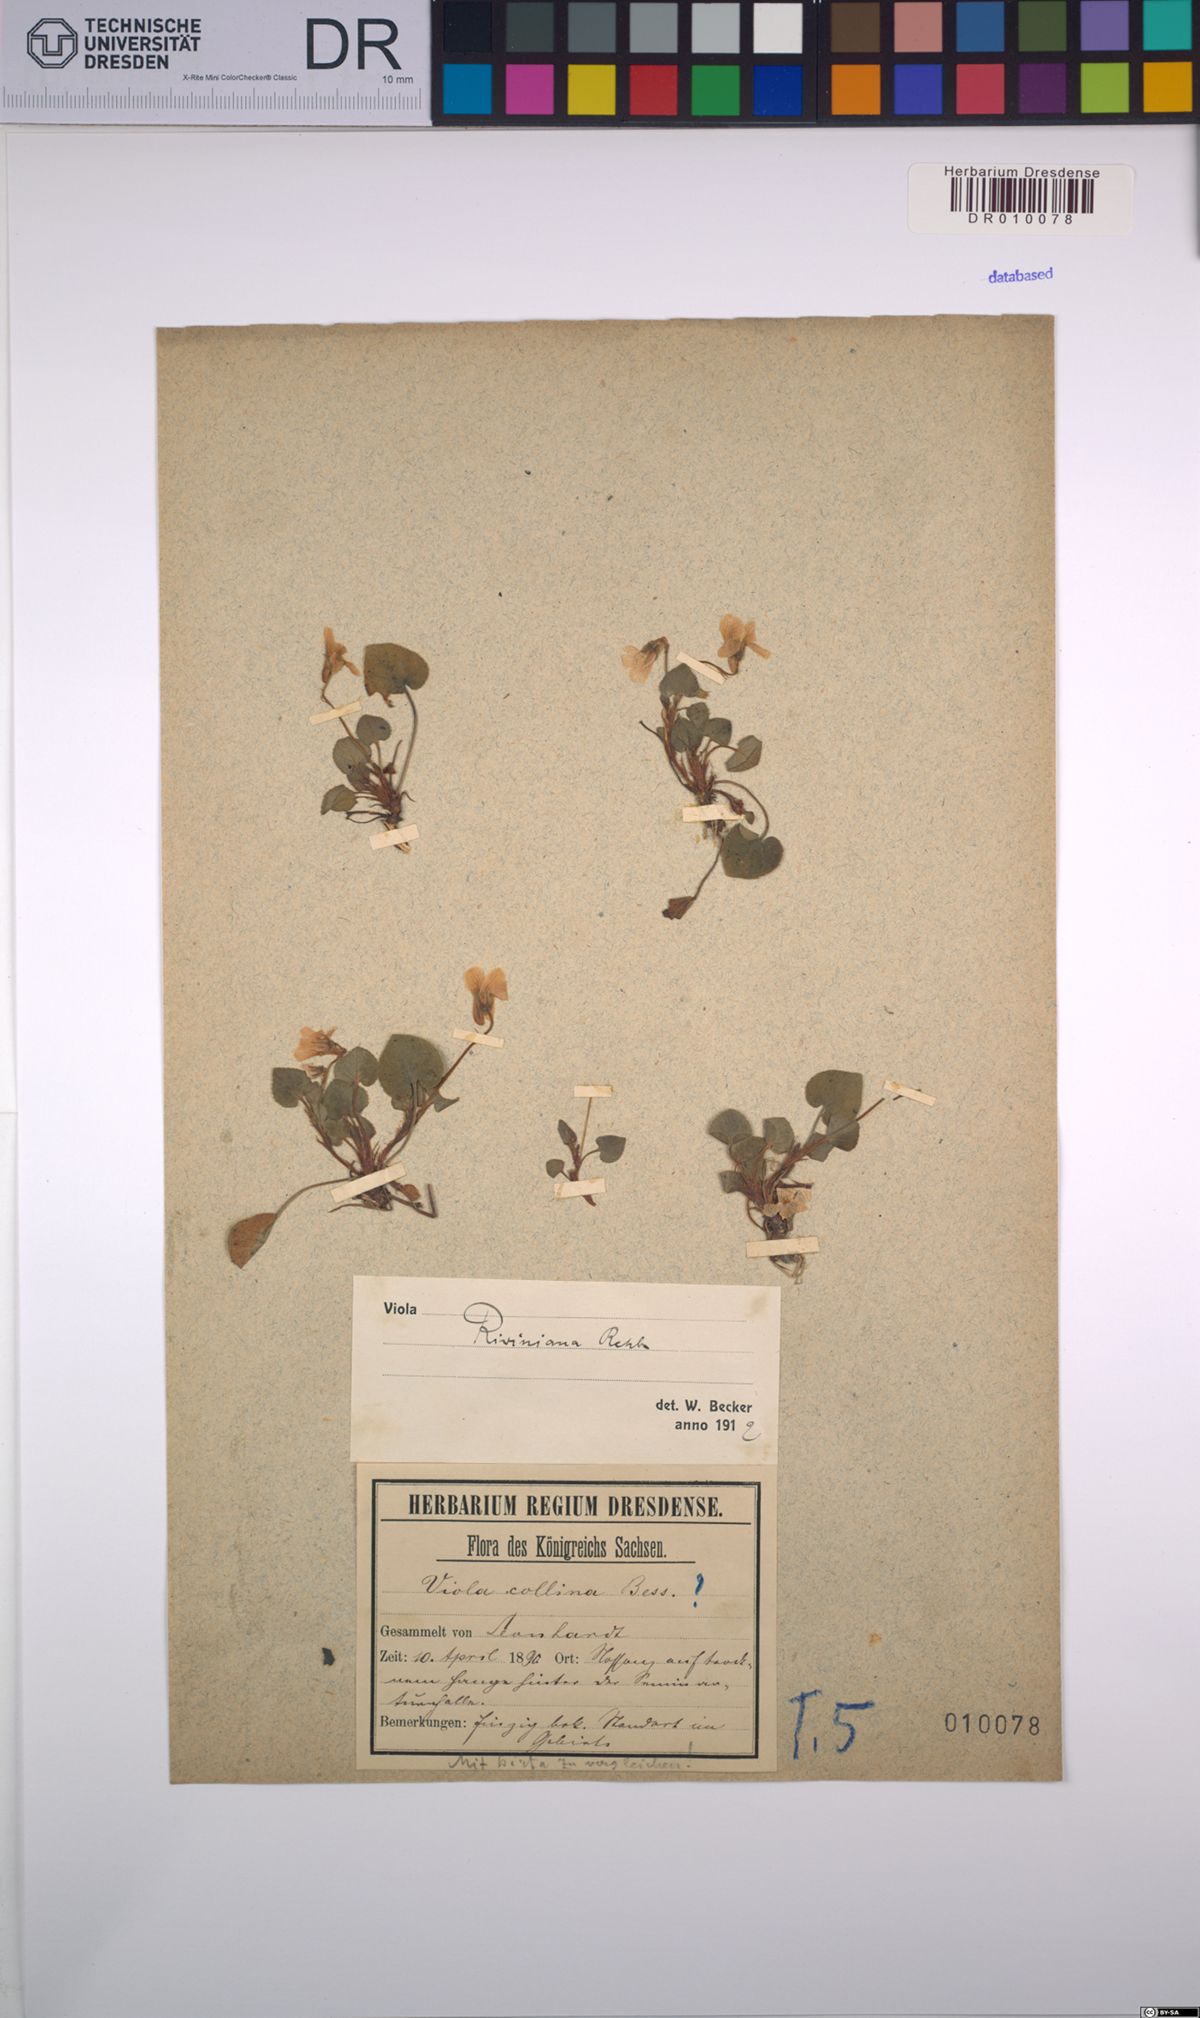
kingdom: Plantae
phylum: Tracheophyta
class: Magnoliopsida
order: Malpighiales
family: Violaceae
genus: Viola
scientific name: Viola riviniana
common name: Common dog-violet
